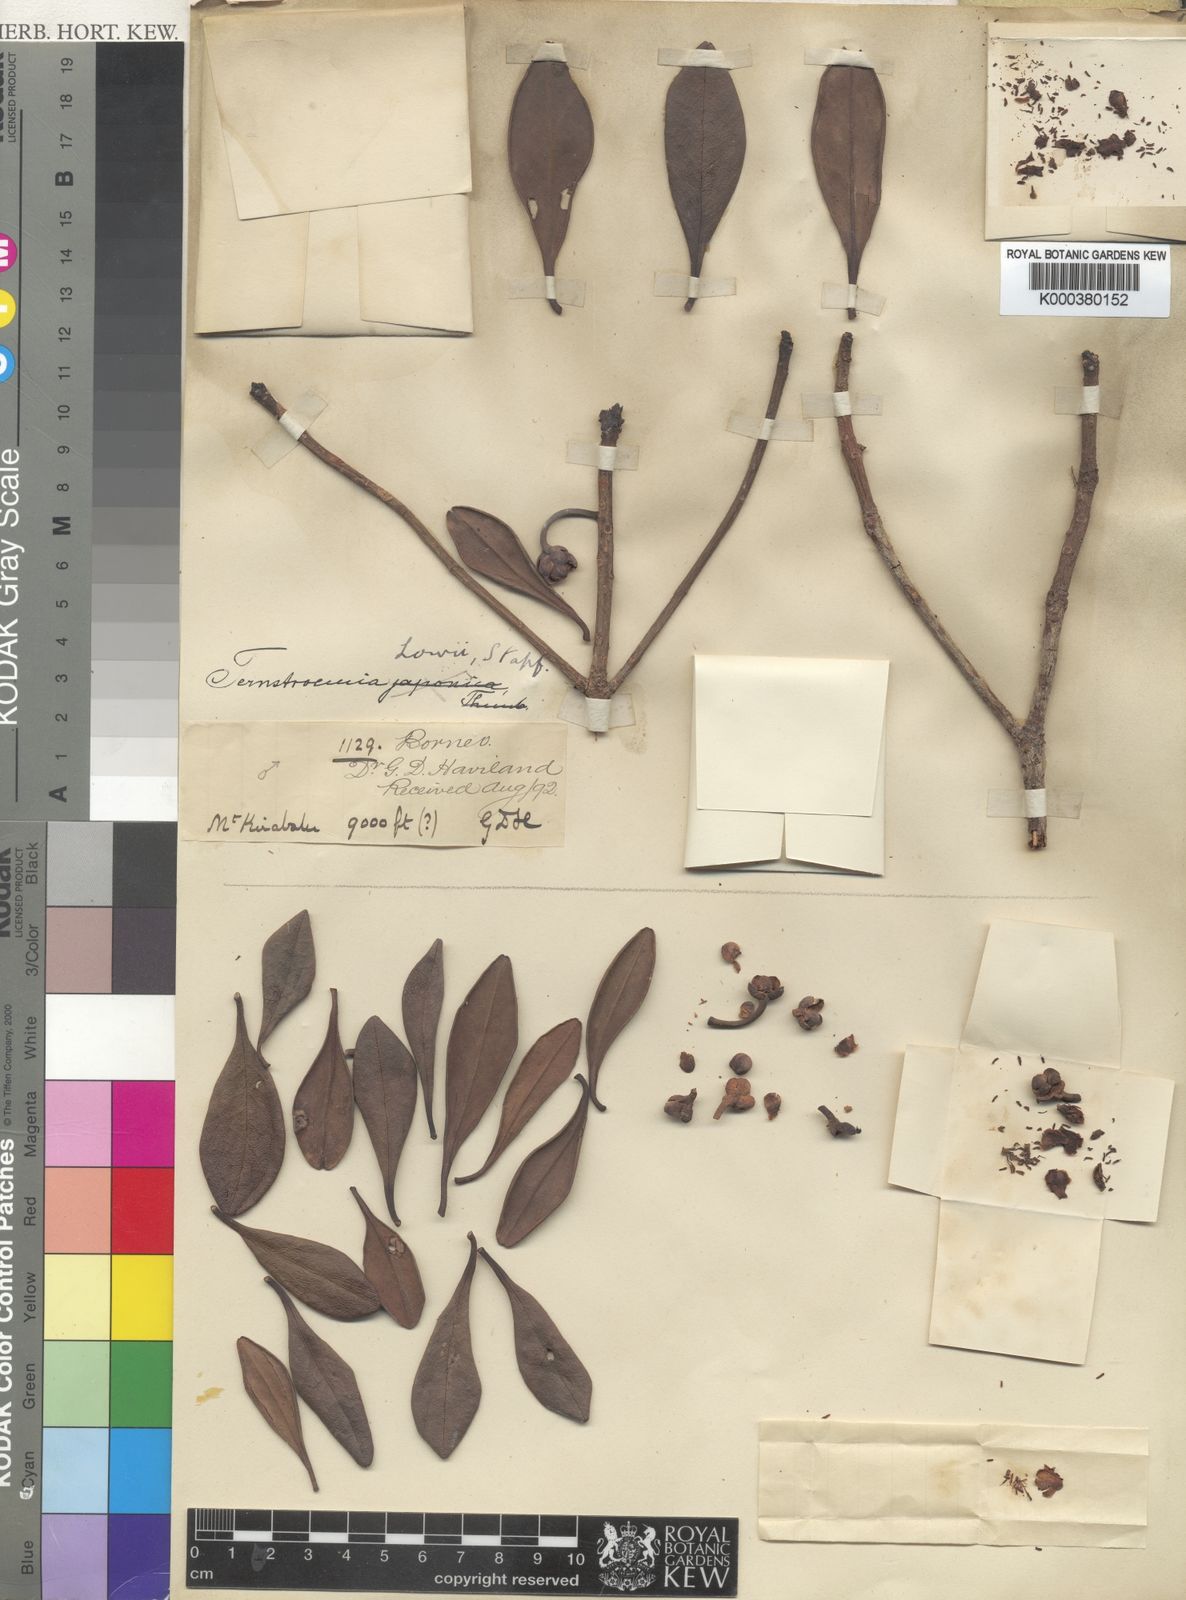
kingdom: Plantae
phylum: Tracheophyta
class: Magnoliopsida
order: Ericales
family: Pentaphylacaceae
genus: Ternstroemia
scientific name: Ternstroemia lowii
